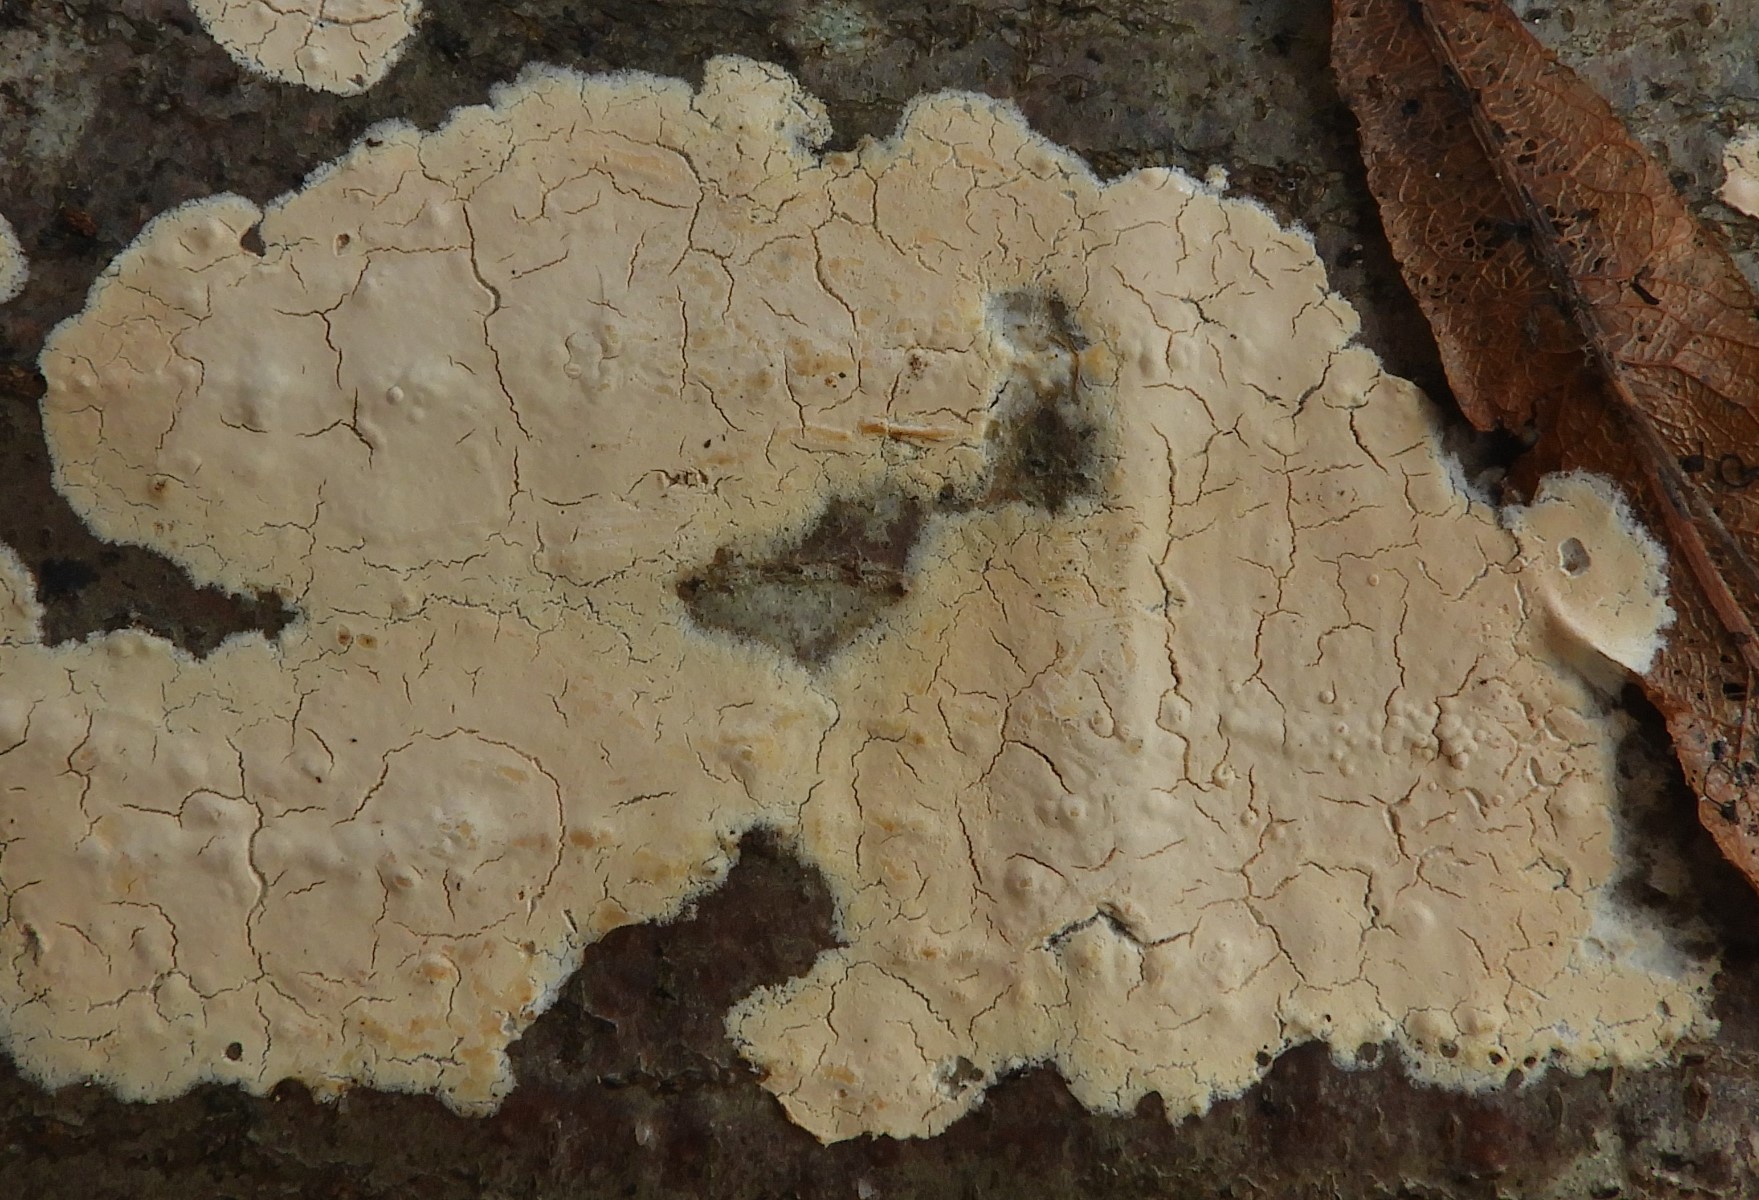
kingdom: Fungi
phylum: Basidiomycota
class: Agaricomycetes
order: Agaricales
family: Physalacriaceae
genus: Cylindrobasidium
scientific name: Cylindrobasidium evolvens
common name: sprækkehinde
